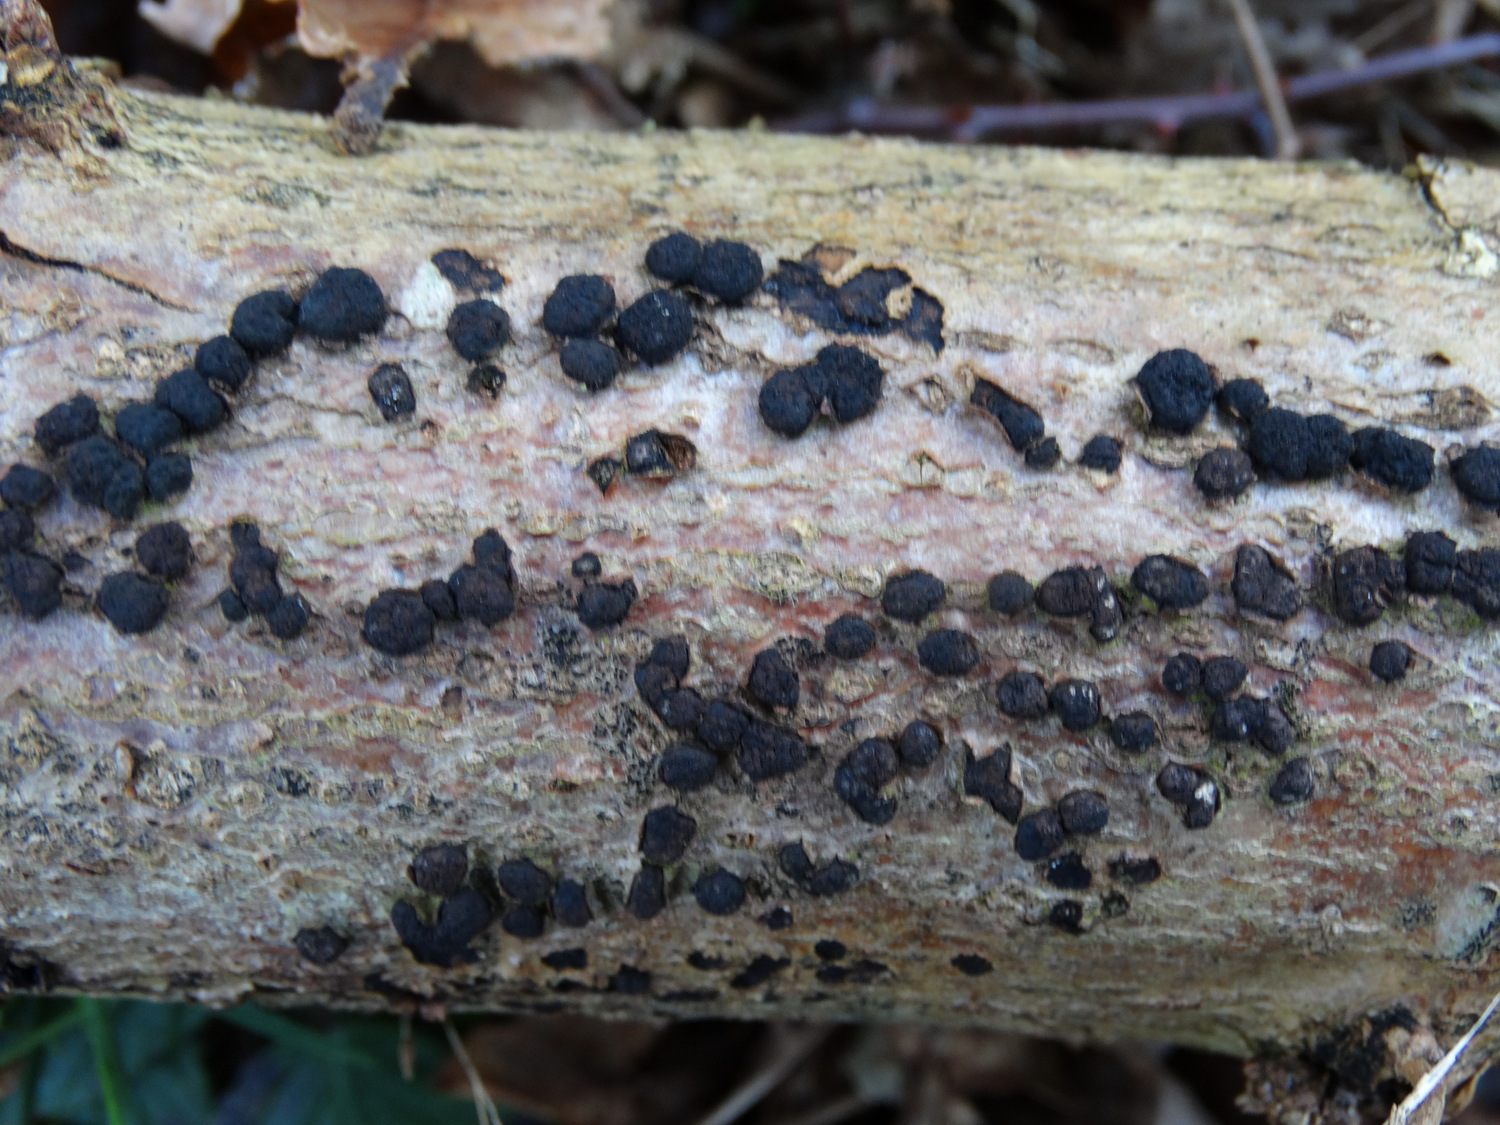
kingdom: Fungi
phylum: Ascomycota
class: Sordariomycetes
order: Xylariales
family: Diatrypaceae
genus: Diatrypella
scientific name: Diatrypella quercina
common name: ege-kulskorpe
